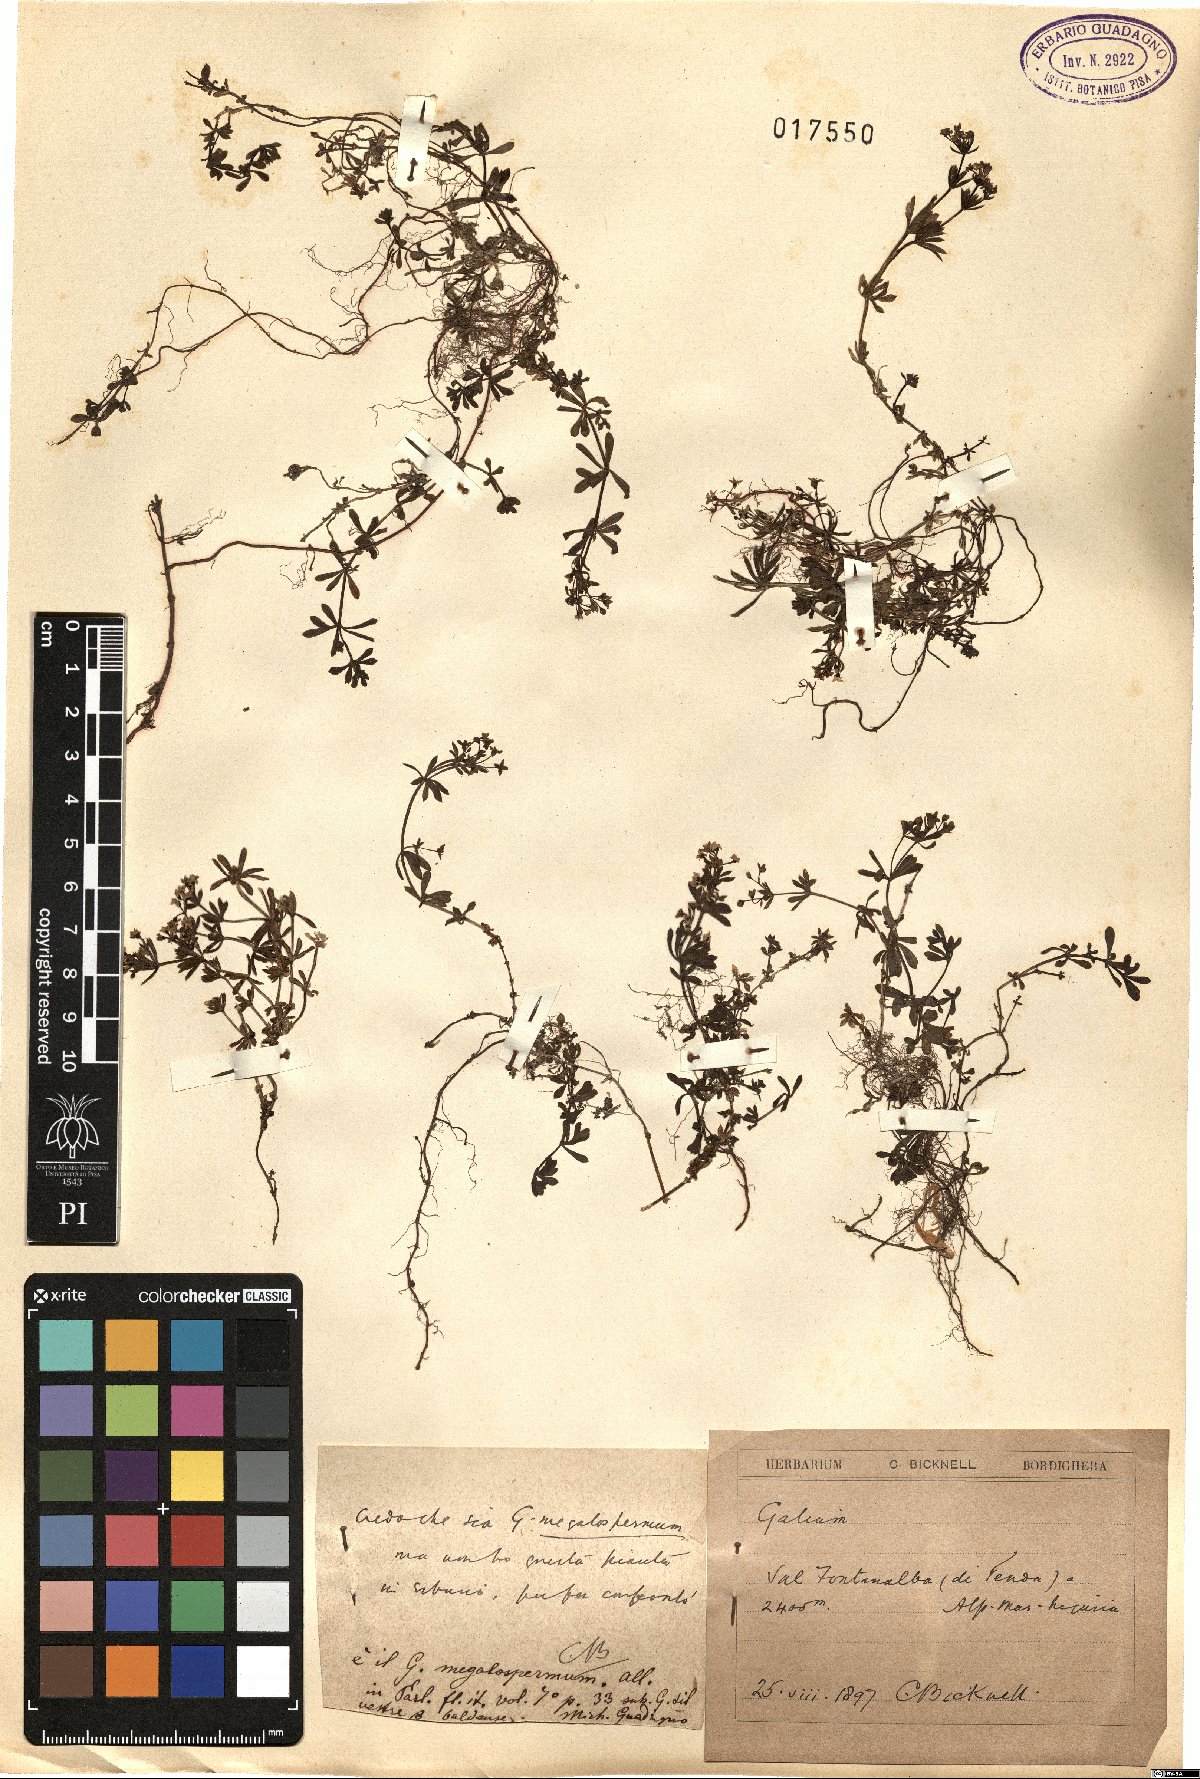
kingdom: Plantae
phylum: Tracheophyta
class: Magnoliopsida
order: Gentianales
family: Rubiaceae
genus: Galium
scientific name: Galium megalospermum
